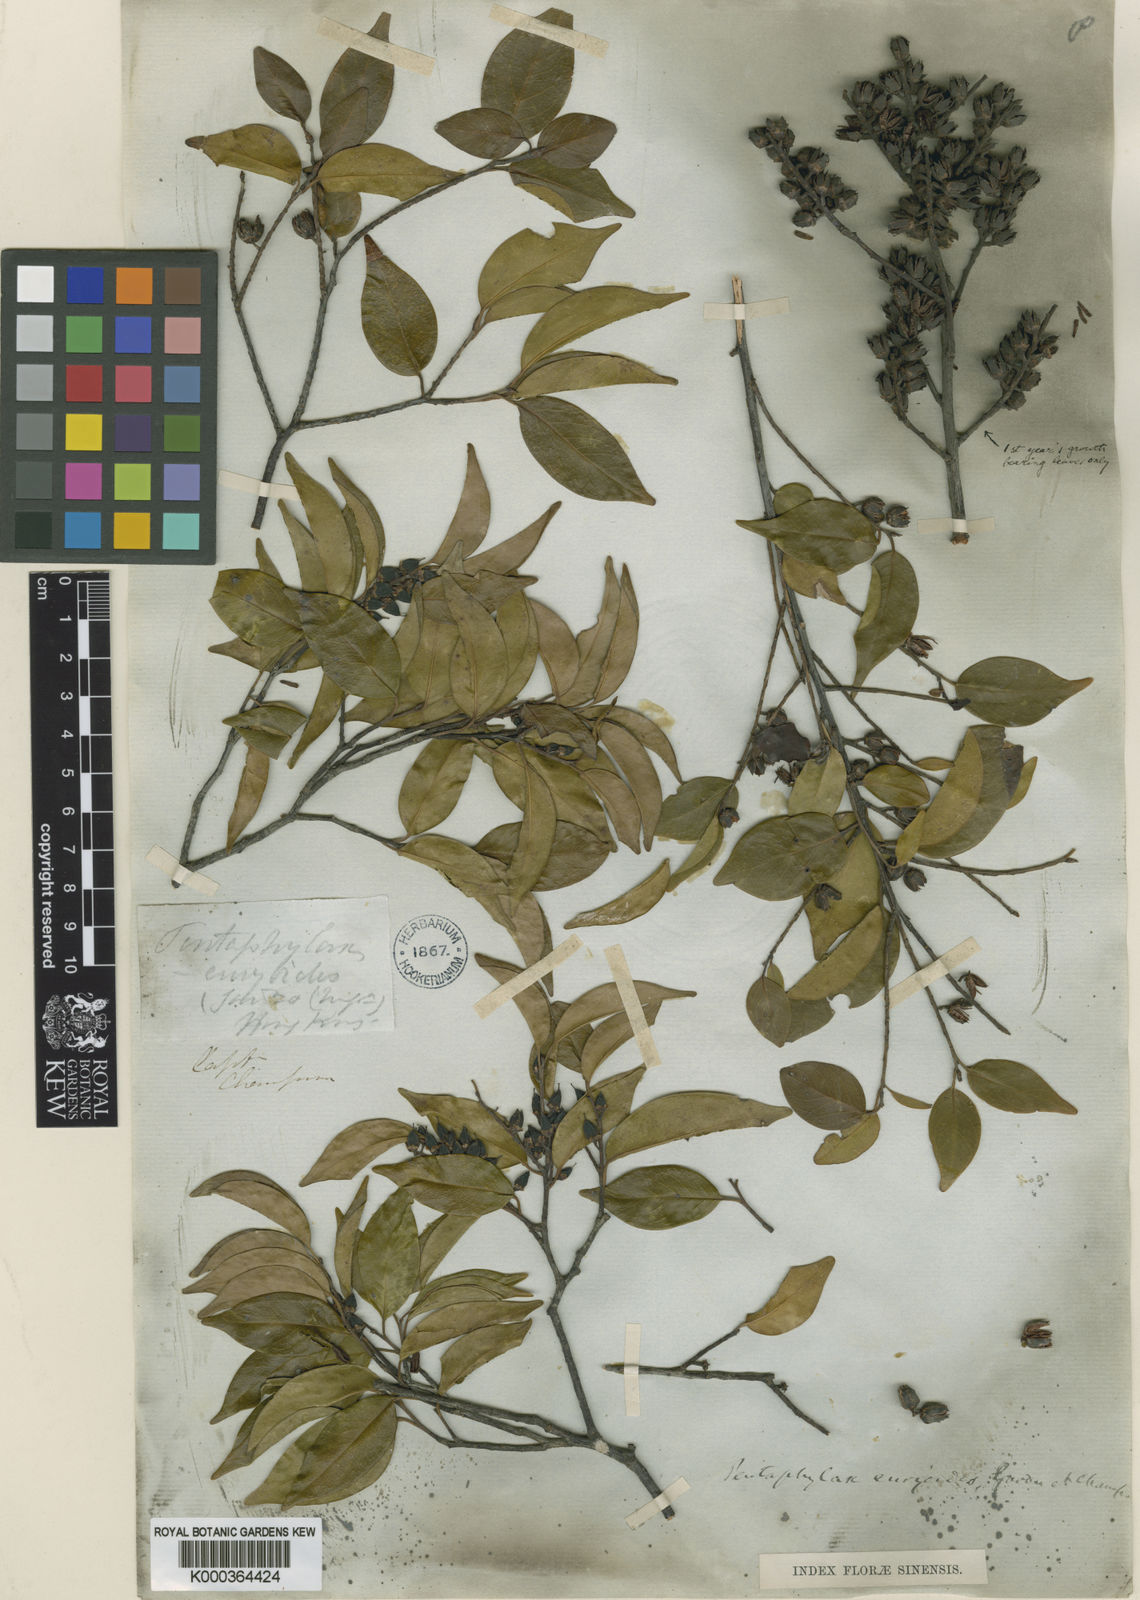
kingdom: Plantae
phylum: Tracheophyta
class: Magnoliopsida
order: Ericales
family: Pentaphylacaceae
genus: Pentaphylax
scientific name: Pentaphylax euryoides
